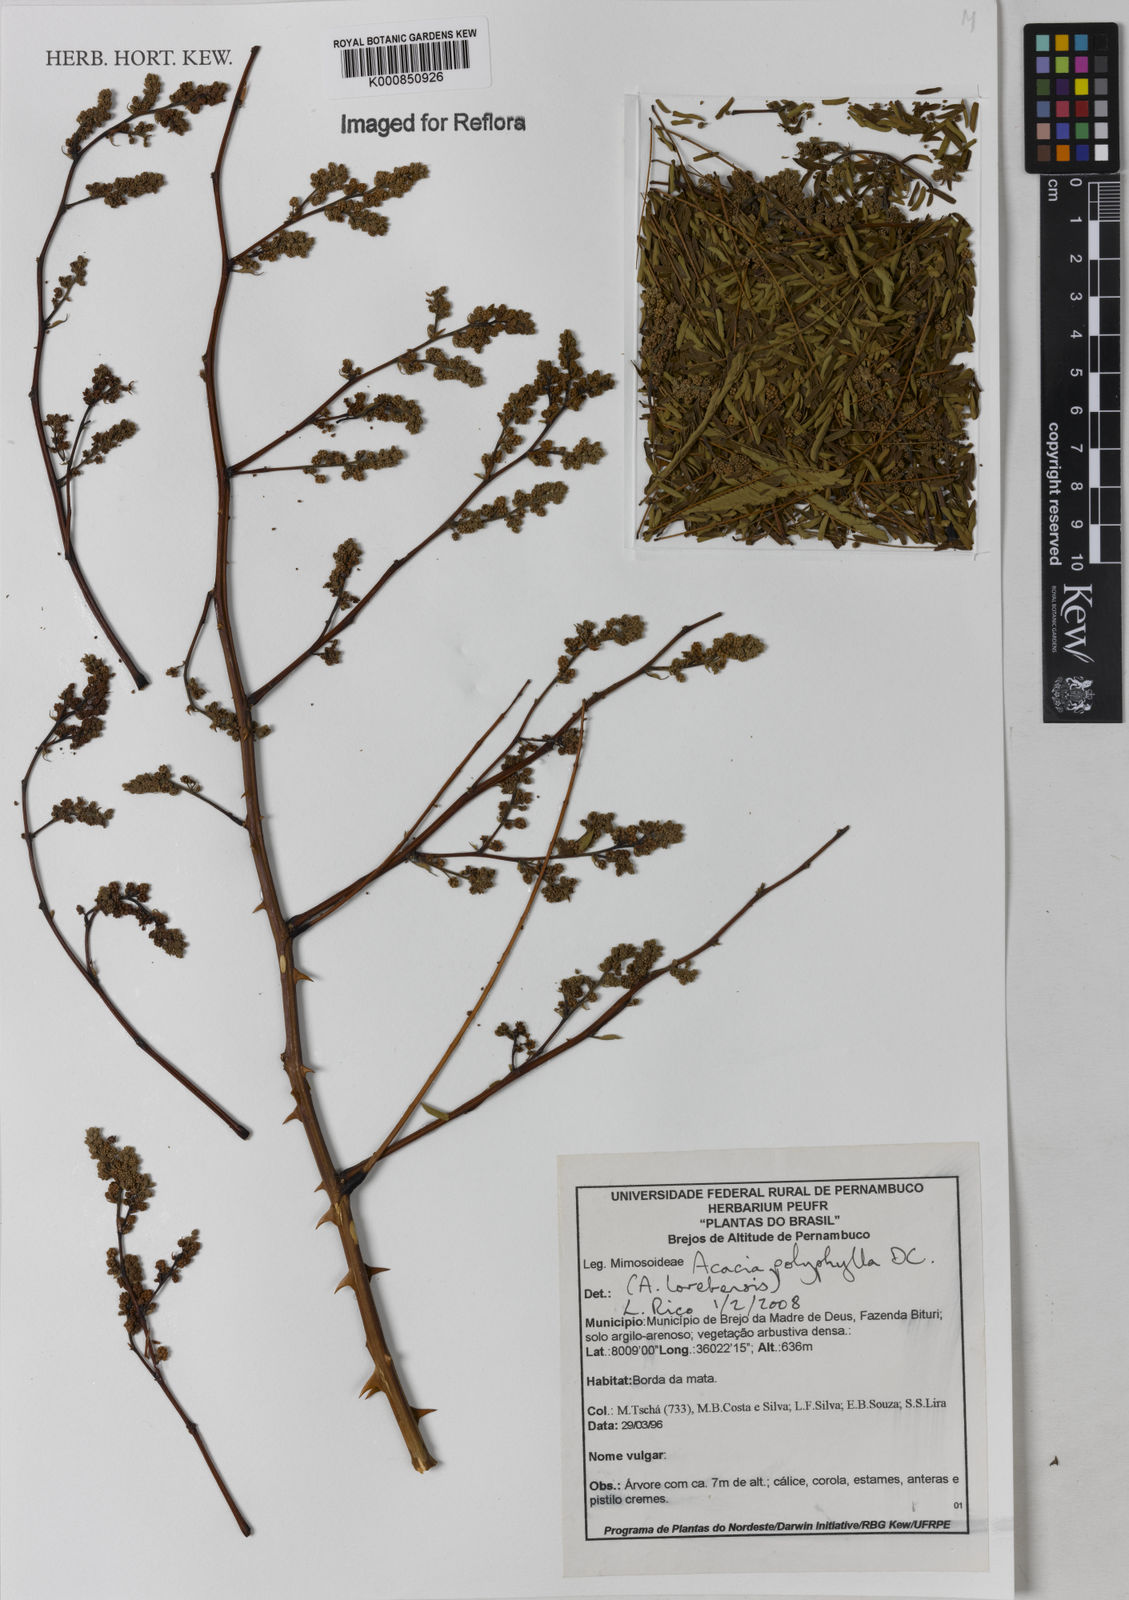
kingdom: Plantae
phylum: Tracheophyta
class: Magnoliopsida
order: Fabales
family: Fabaceae
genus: Senegalia
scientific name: Senegalia polyphylla
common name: White-tamarind
